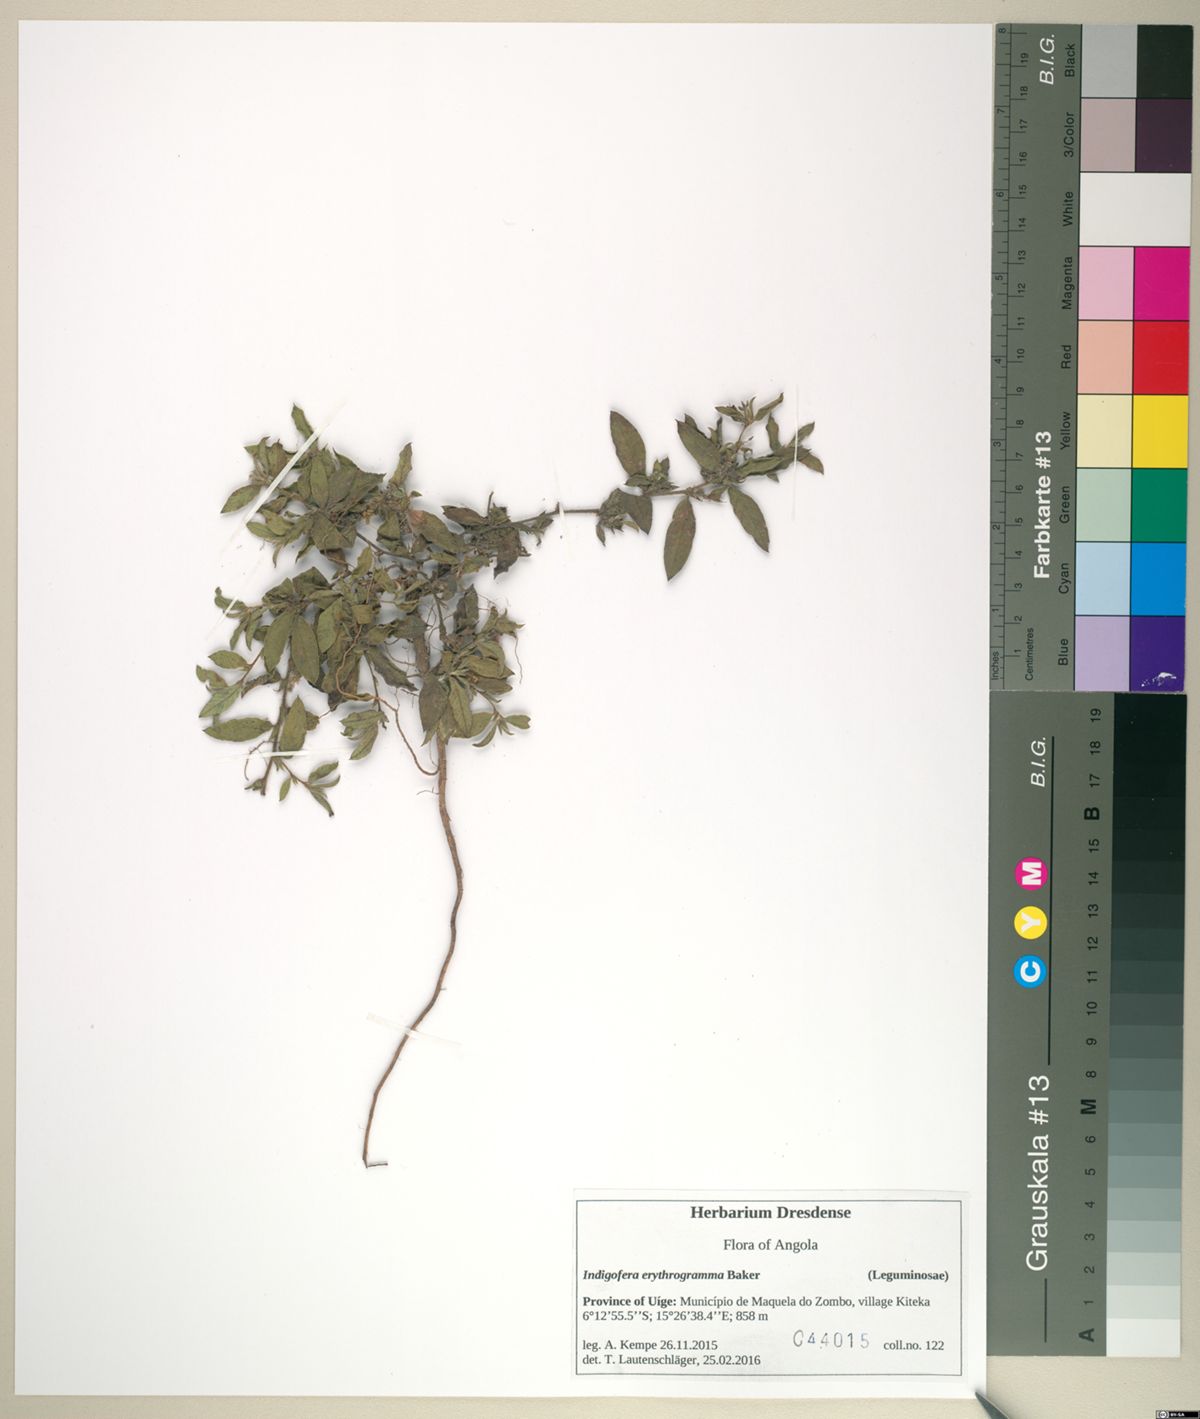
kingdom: Plantae
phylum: Tracheophyta
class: Magnoliopsida
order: Fabales
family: Fabaceae
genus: Indigofera
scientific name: Indigofera erythrogramma
